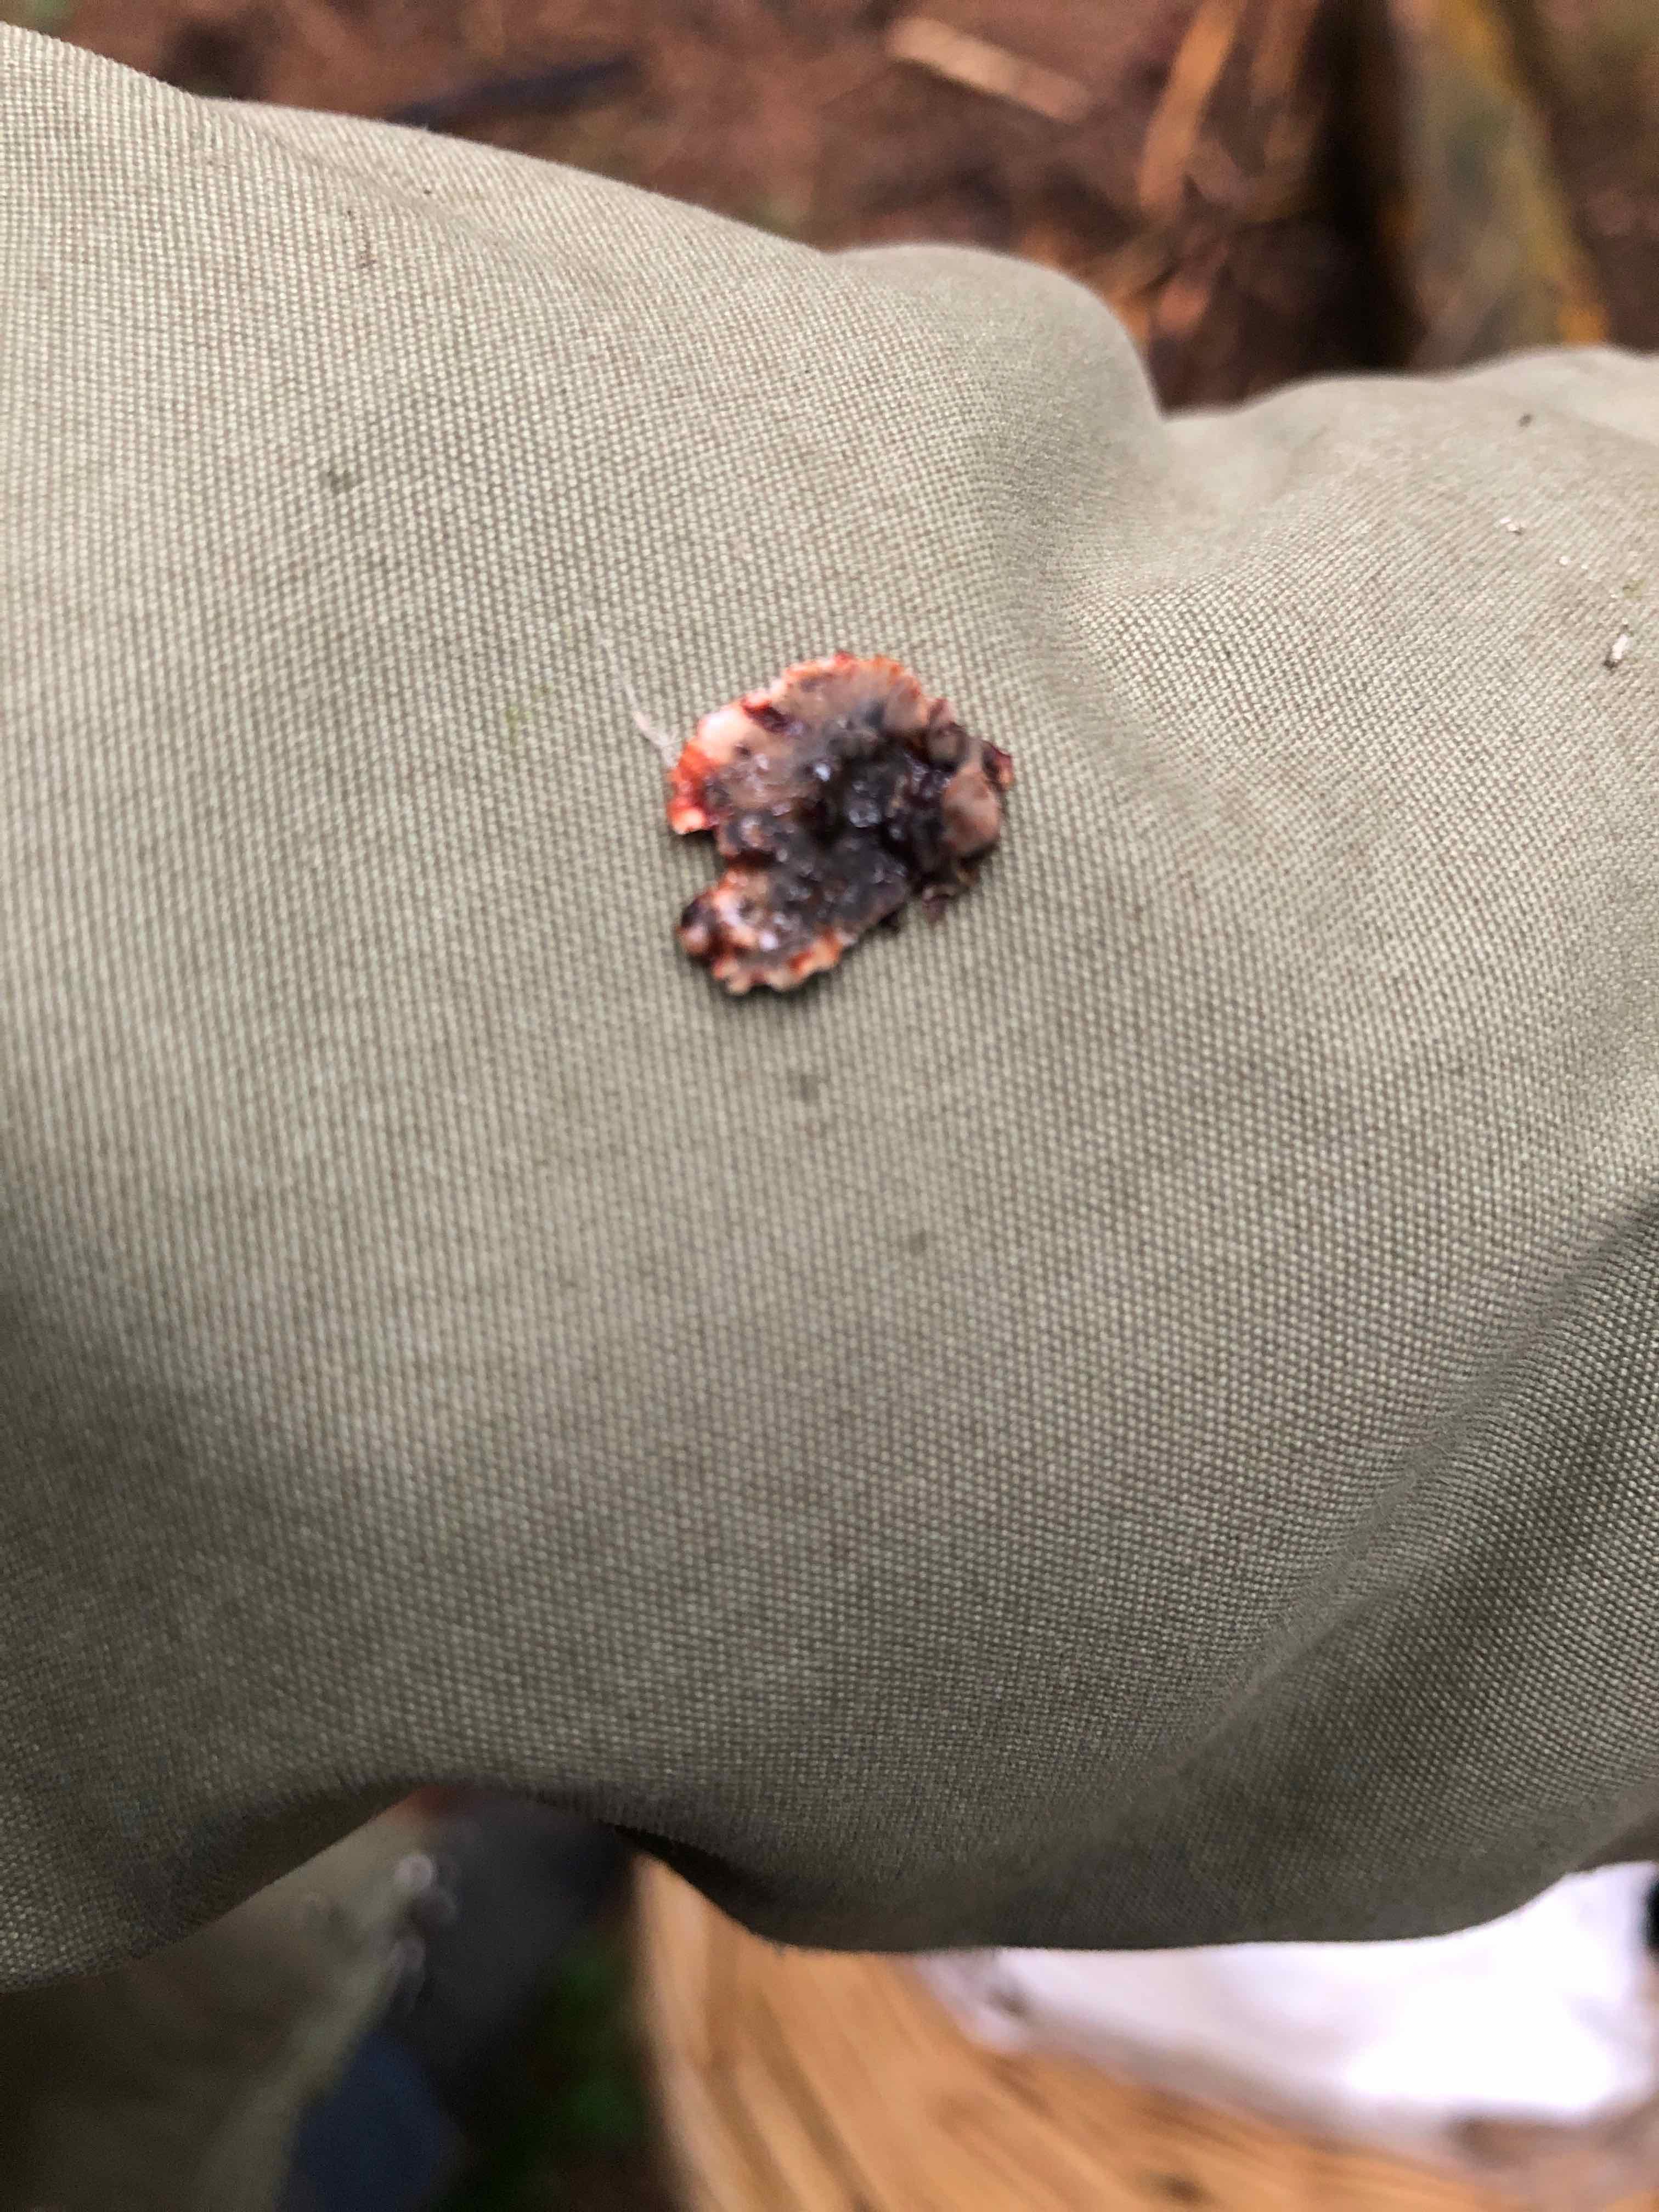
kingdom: Fungi
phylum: Basidiomycota
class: Agaricomycetes
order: Russulales
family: Stereaceae
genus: Stereum
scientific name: Stereum sanguinolentum
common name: blødende lædersvamp
